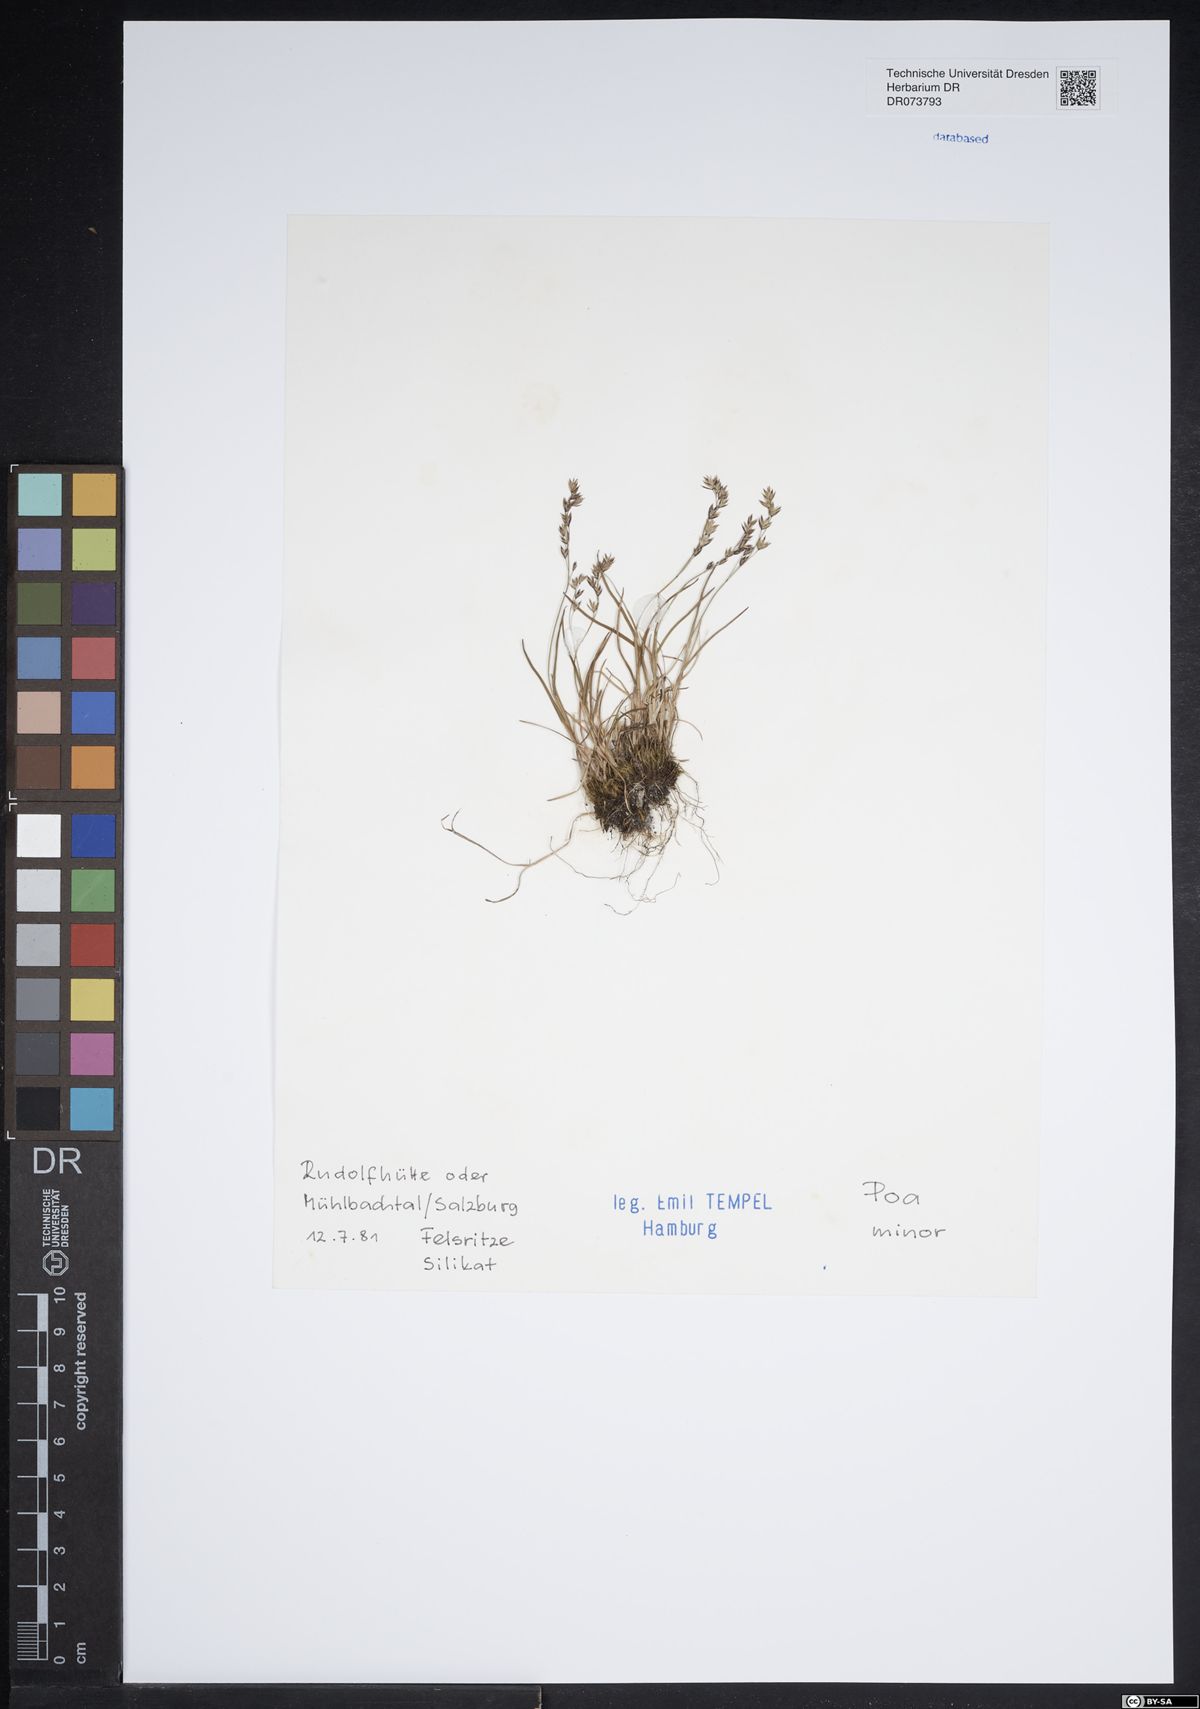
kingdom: Plantae
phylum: Tracheophyta
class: Liliopsida
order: Poales
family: Poaceae
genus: Poa
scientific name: Poa minor
